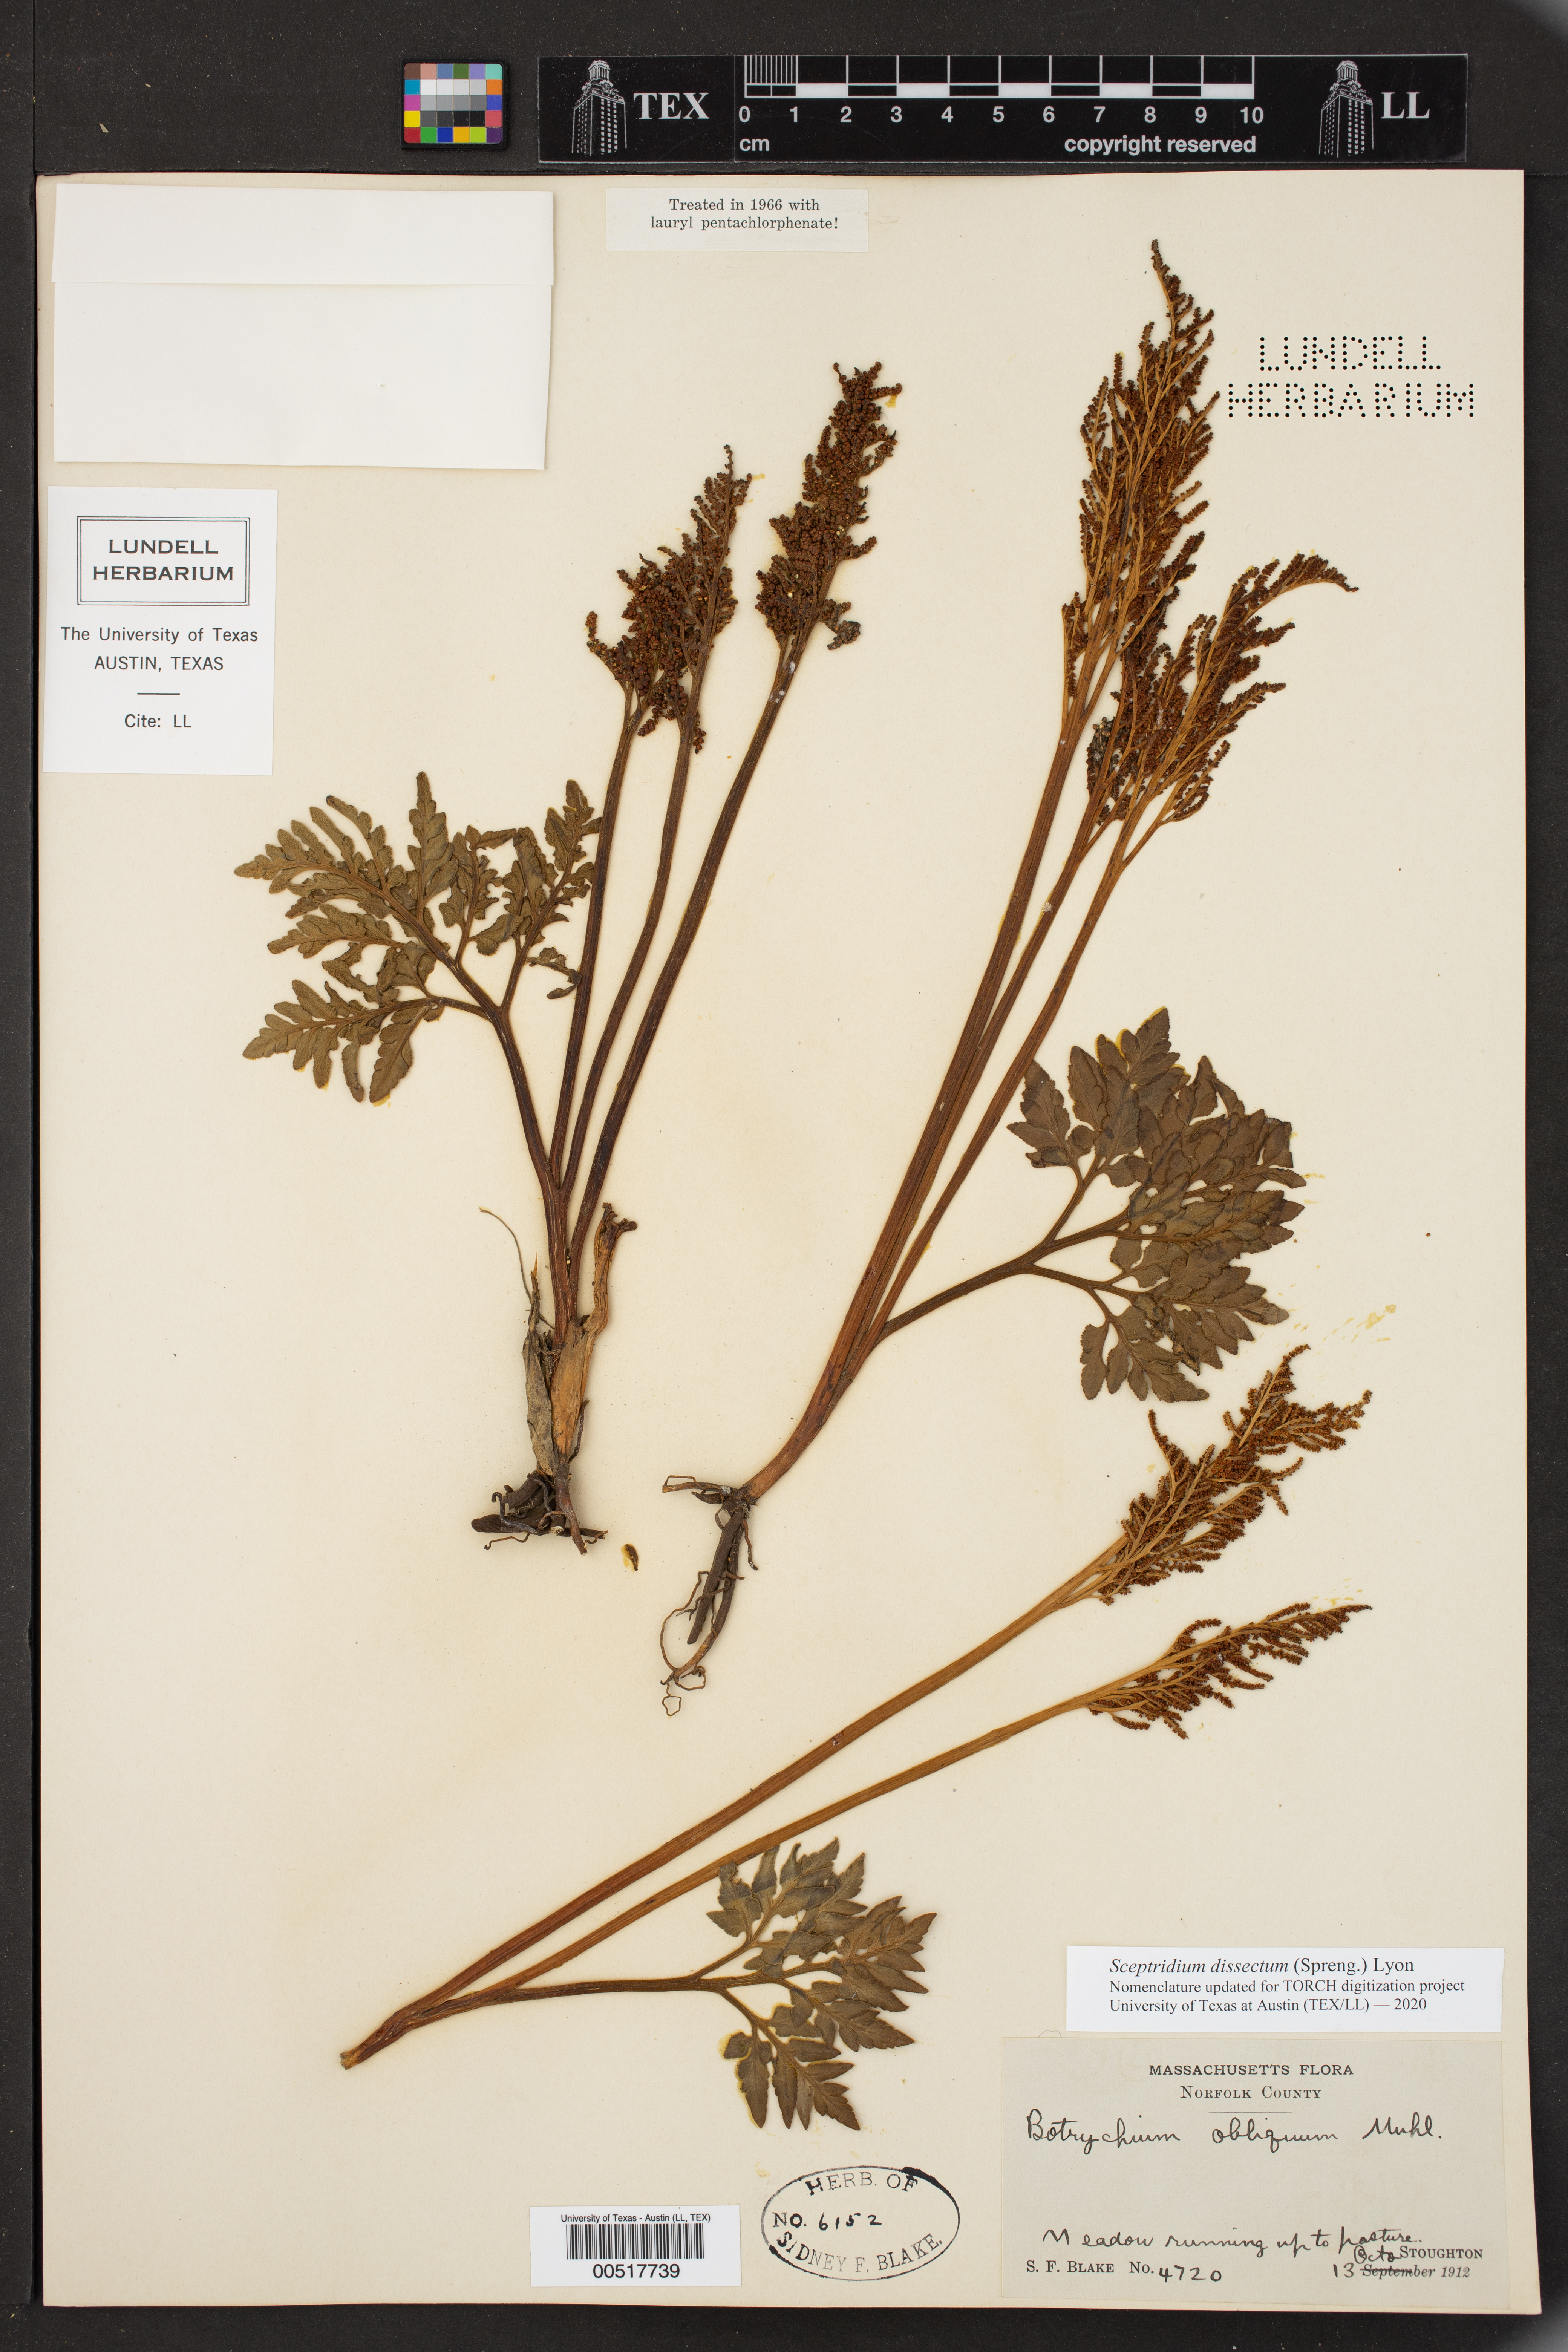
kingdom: Plantae
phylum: Tracheophyta
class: Polypodiopsida
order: Ophioglossales
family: Ophioglossaceae
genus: Sceptridium
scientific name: Sceptridium dissectum
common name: Cut-leaved grapefern
